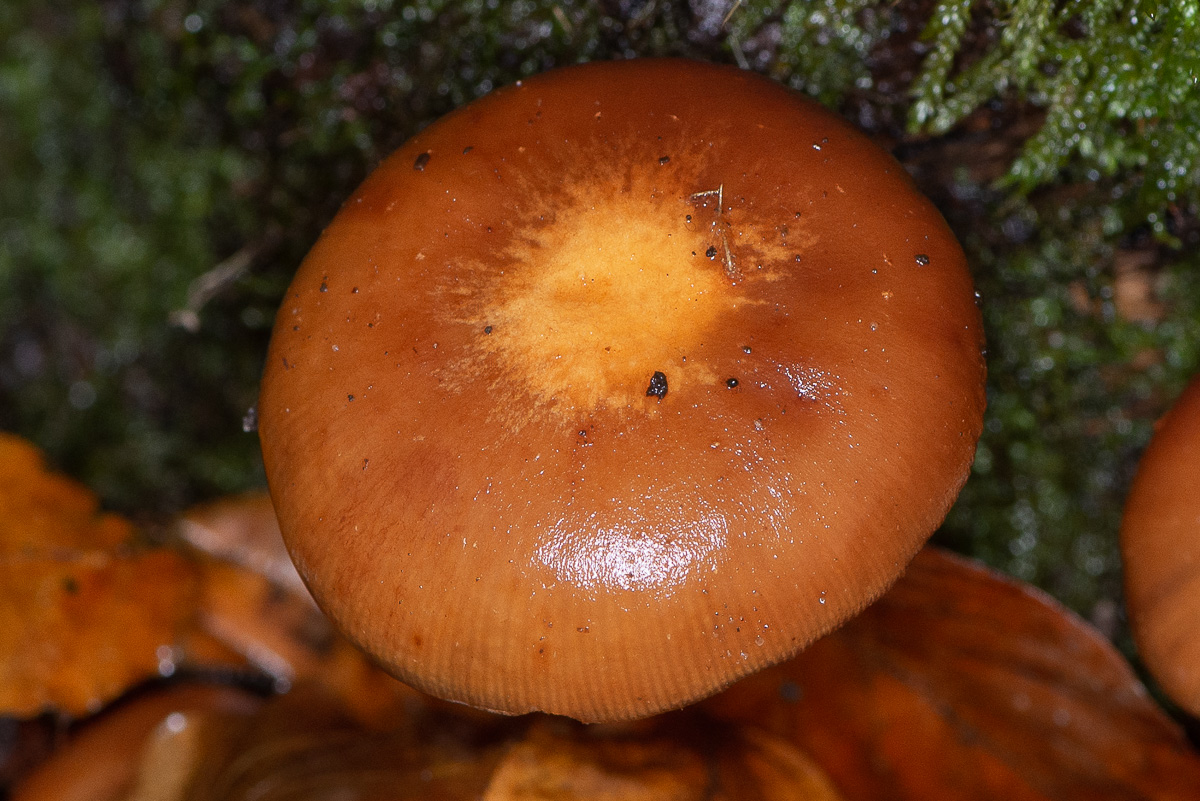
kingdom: Fungi
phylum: Basidiomycota
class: Agaricomycetes
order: Agaricales
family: Hymenogastraceae
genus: Galerina
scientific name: Galerina marginata
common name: randbæltet hjelmhat
